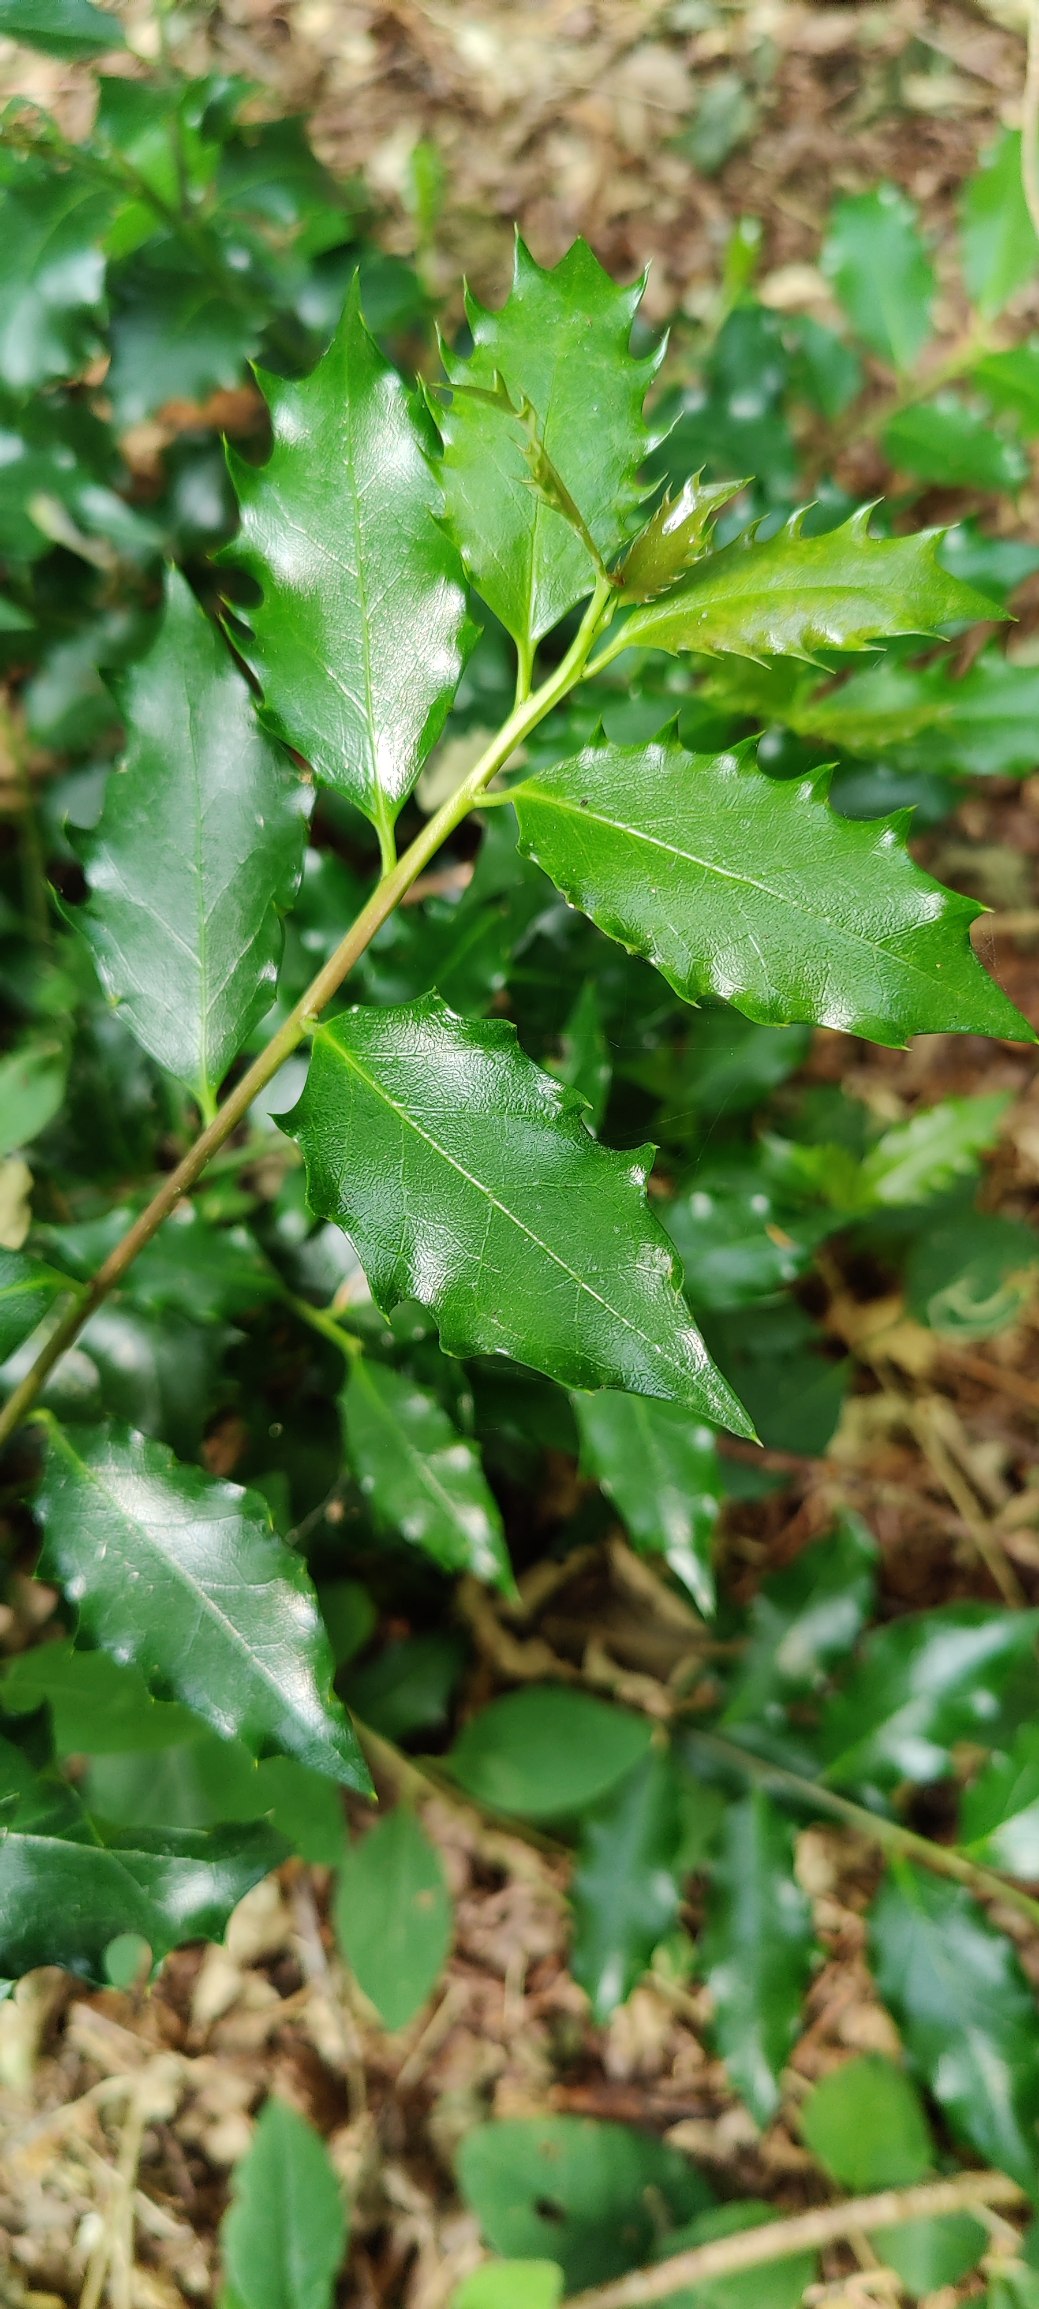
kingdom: Plantae
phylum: Tracheophyta
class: Magnoliopsida
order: Aquifoliales
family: Aquifoliaceae
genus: Ilex
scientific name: Ilex aquifolium
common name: Kristtorn
